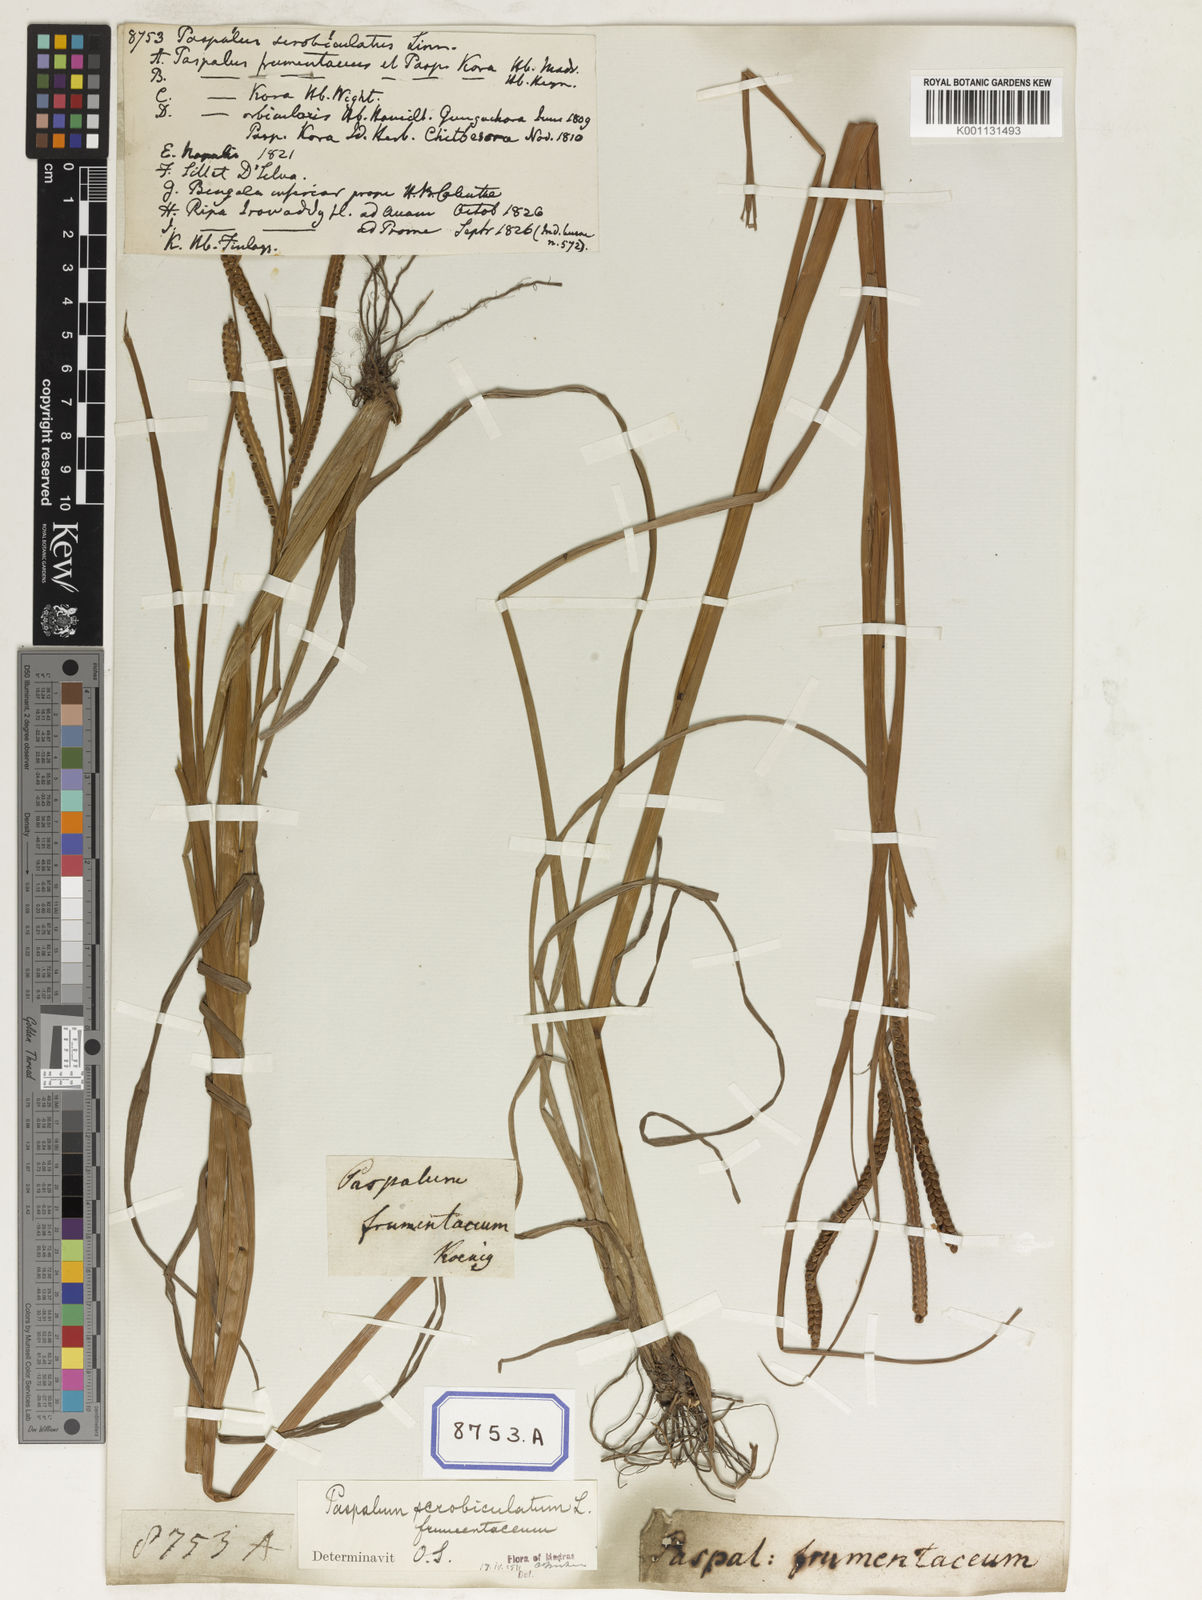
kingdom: Plantae
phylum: Tracheophyta
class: Liliopsida
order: Poales
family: Poaceae
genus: Paspalum
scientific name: Paspalum scrobiculatum
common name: Kodo millet
